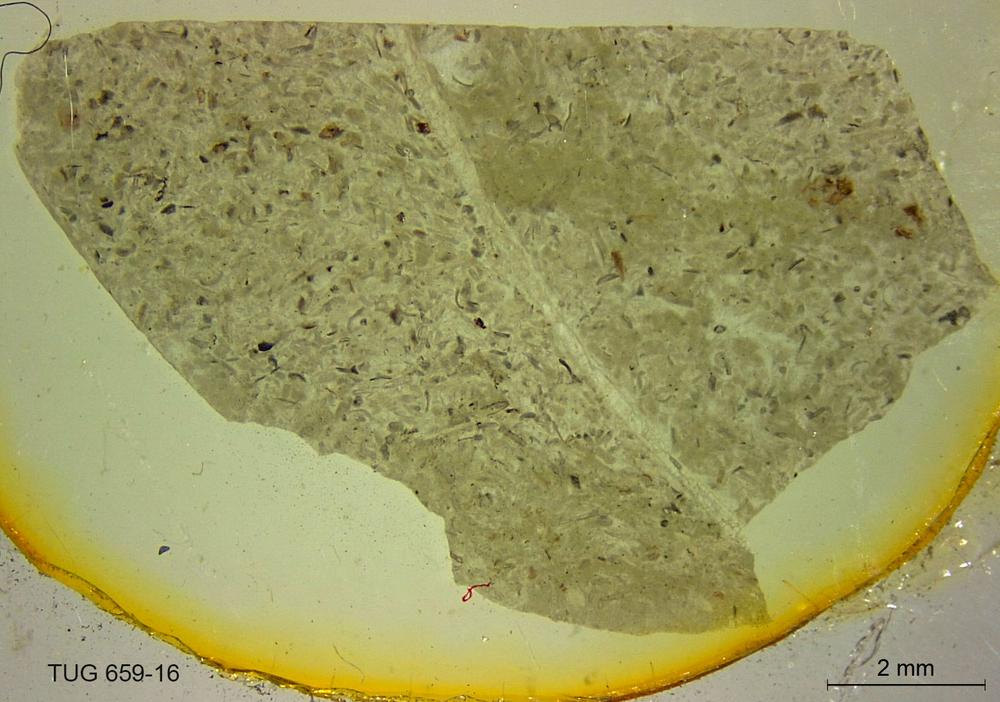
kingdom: Animalia
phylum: Porifera
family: Stromatoporidae
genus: Stromatopora
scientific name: Stromatopora
